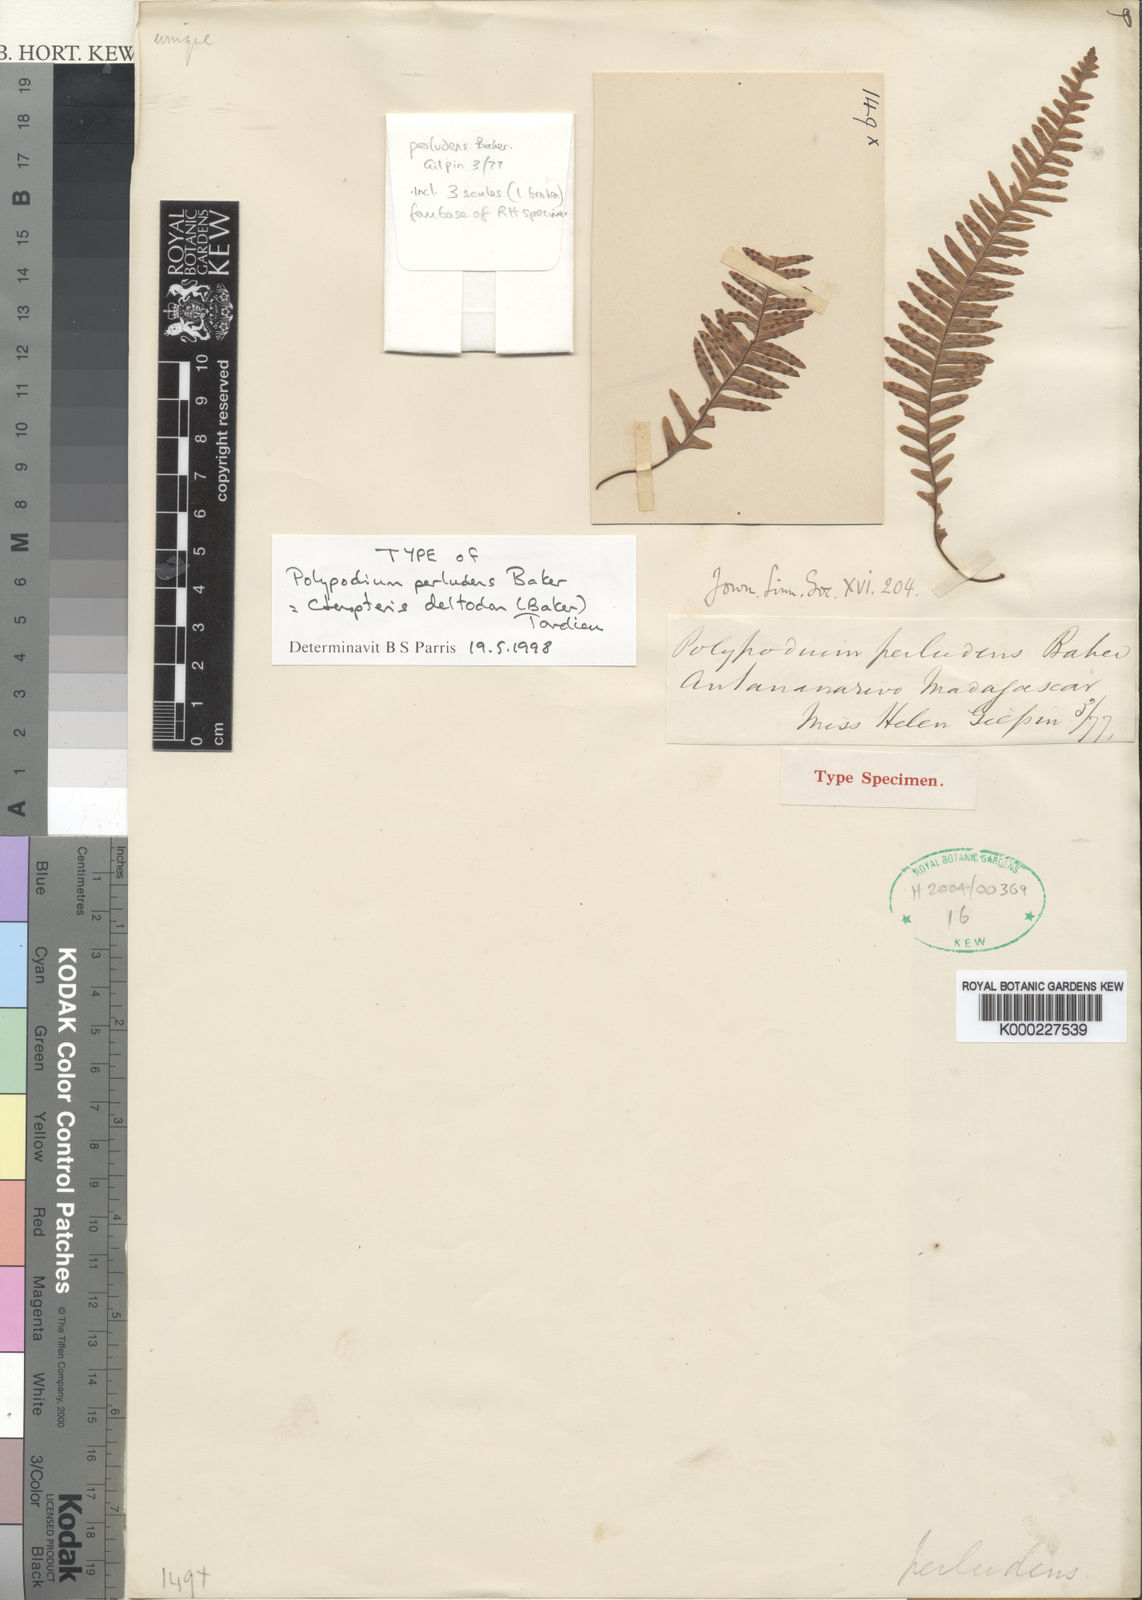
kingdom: Plantae
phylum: Tracheophyta
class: Polypodiopsida
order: Polypodiales
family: Polypodiaceae
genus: Ceradenia
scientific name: Ceradenia deltodon
